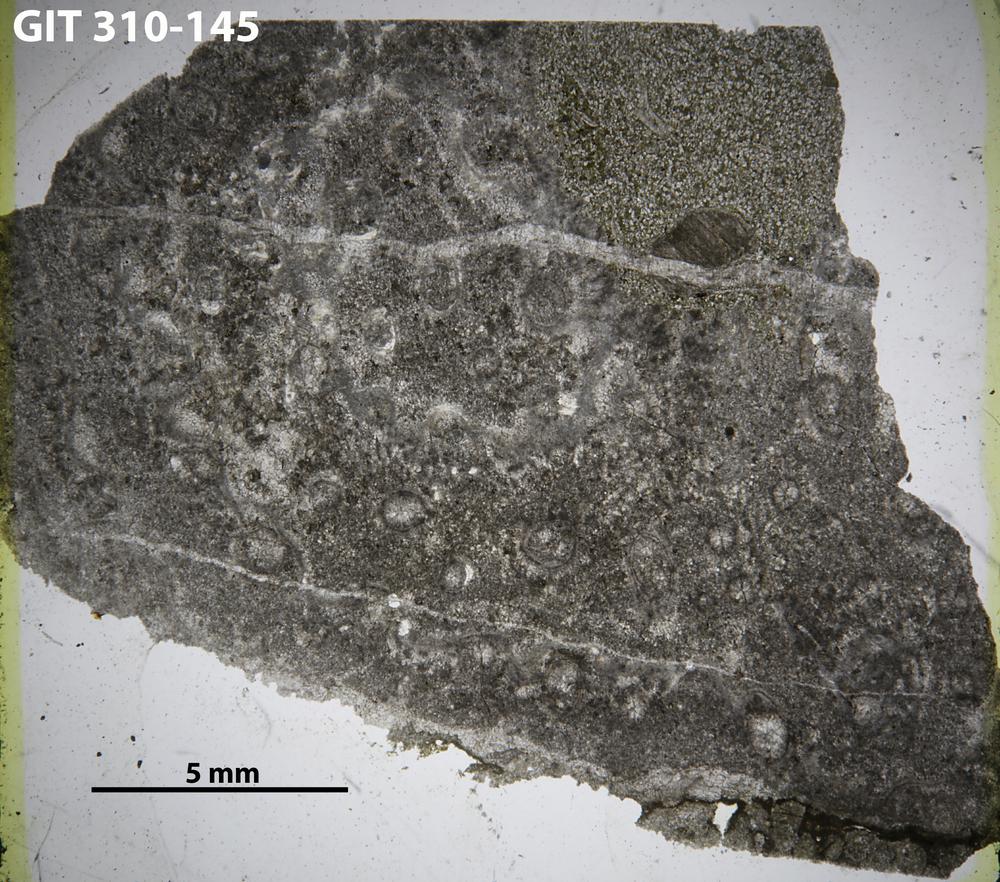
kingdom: Animalia
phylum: Porifera
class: Hexactinellida
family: Cliefdenellidae
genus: Cliefdenella
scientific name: Cliefdenella
